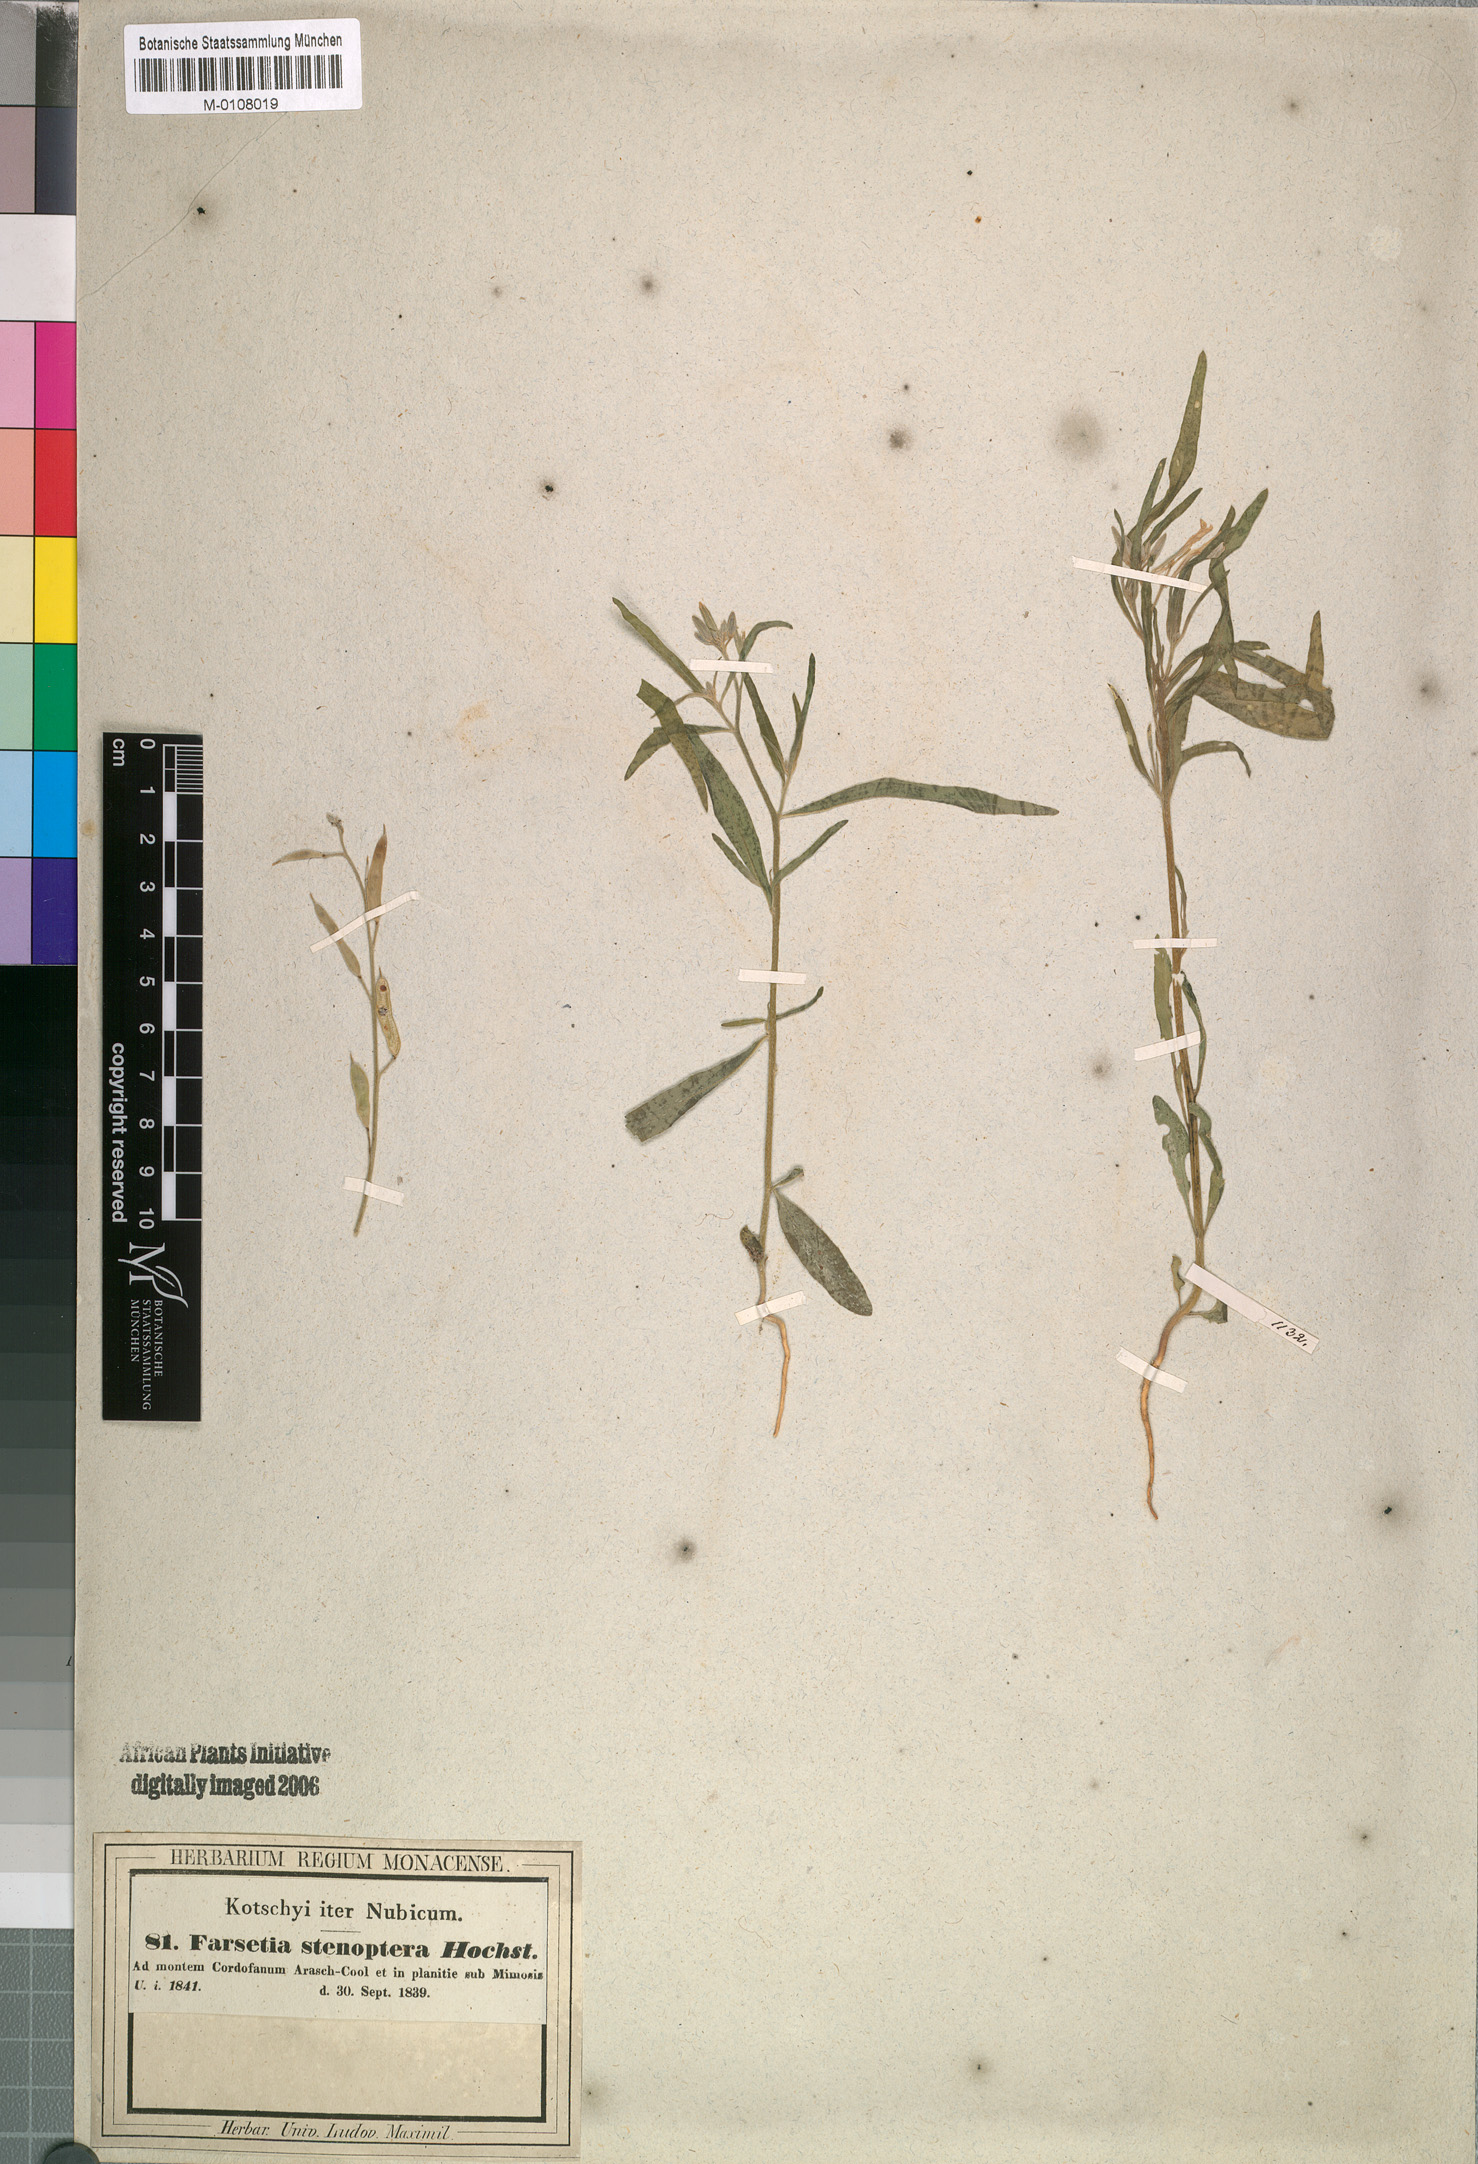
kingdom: Plantae
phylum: Tracheophyta
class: Magnoliopsida
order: Brassicales
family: Brassicaceae
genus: Farsetia
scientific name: Farsetia stenoptera
